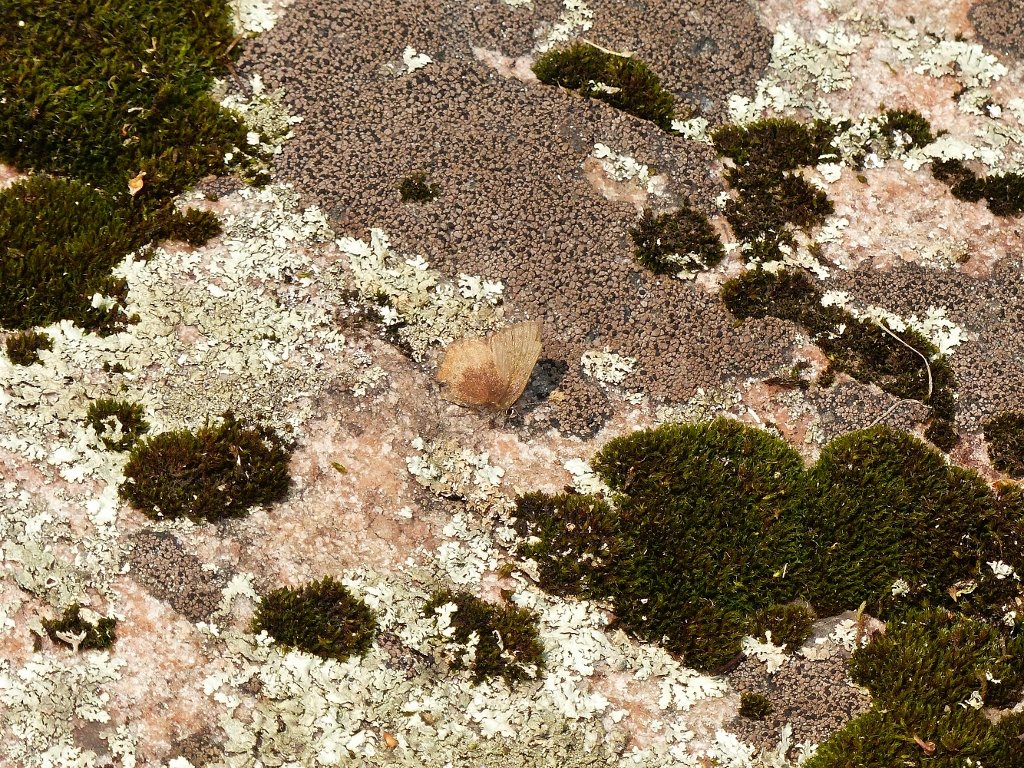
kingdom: Animalia
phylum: Arthropoda
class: Insecta
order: Lepidoptera
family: Lycaenidae
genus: Incisalia
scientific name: Incisalia irioides
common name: Brown Elfin
